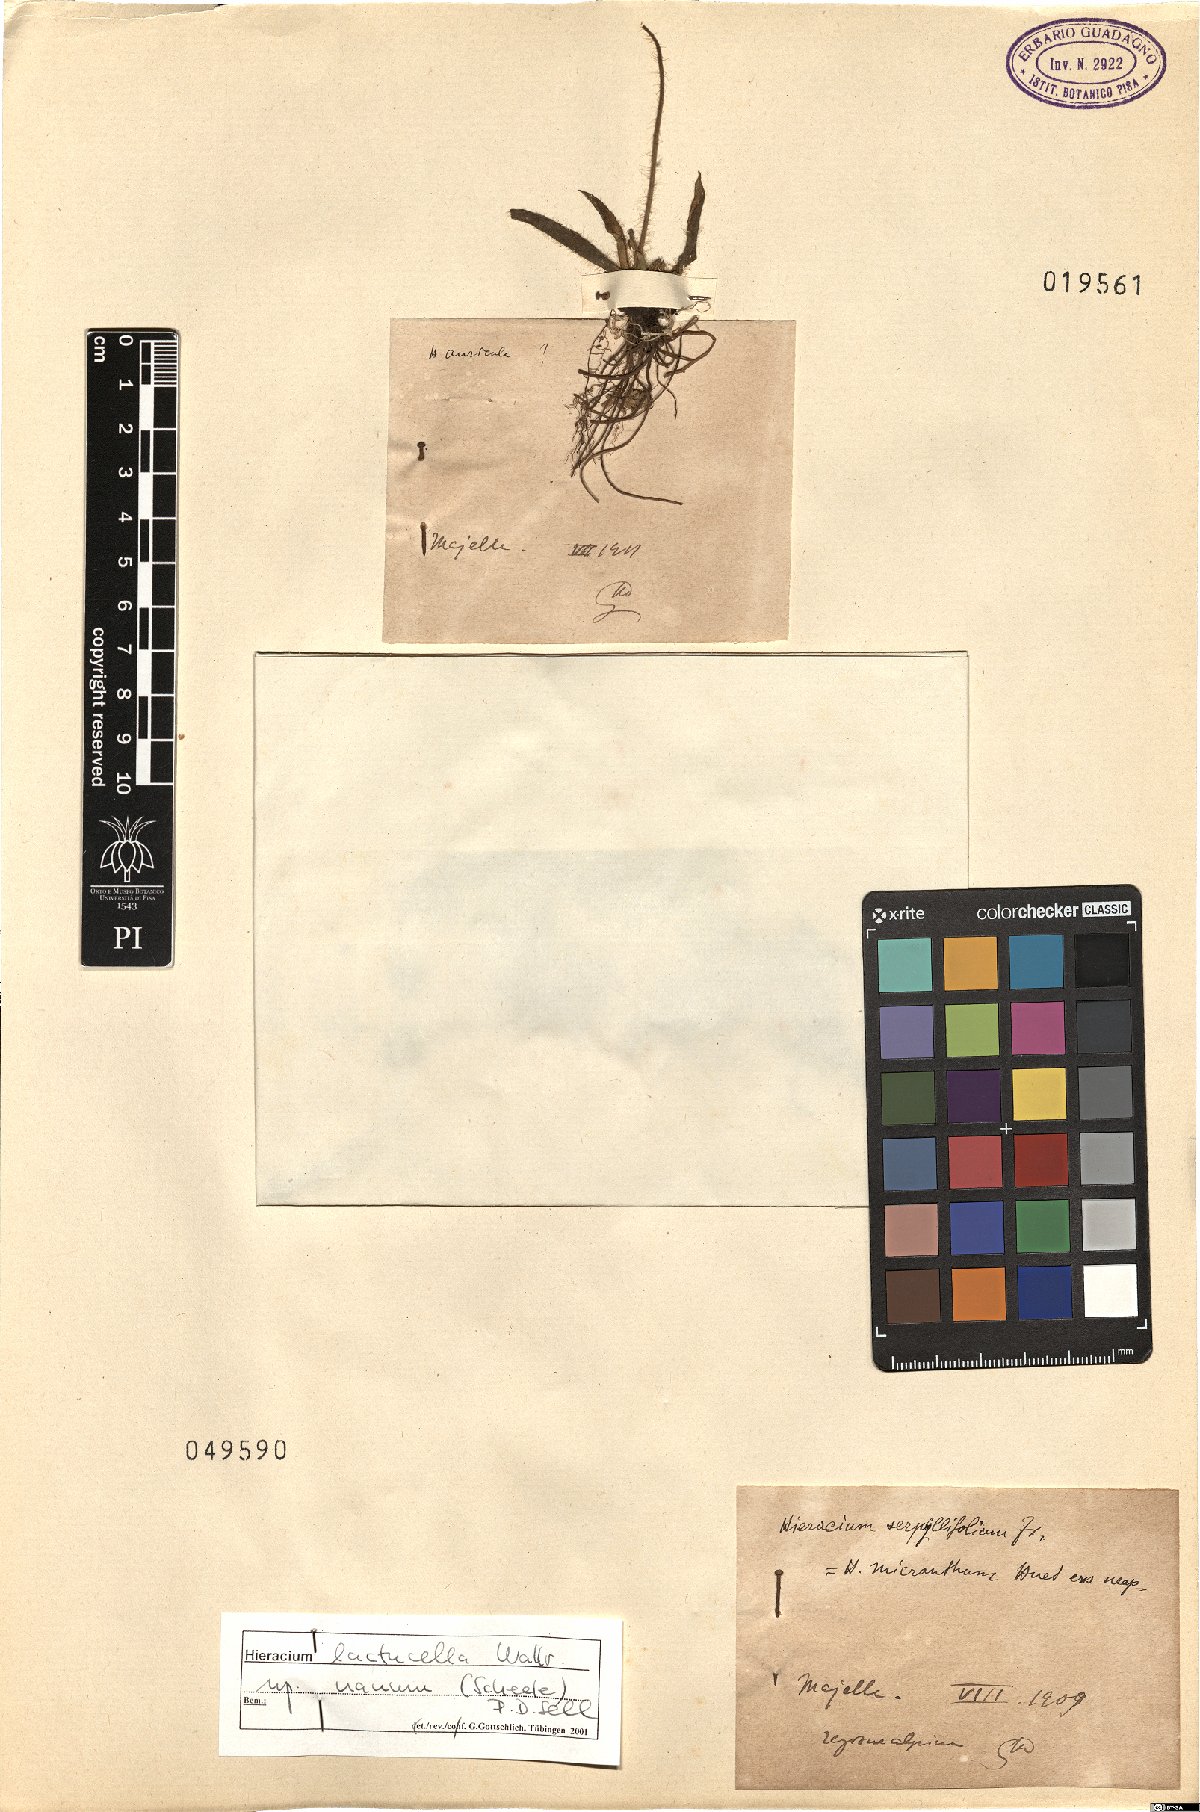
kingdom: Plantae
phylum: Tracheophyta
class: Magnoliopsida
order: Asterales
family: Asteraceae
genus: Pilosella
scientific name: Pilosella lactucella
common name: Glaucous fox-and-cubs
